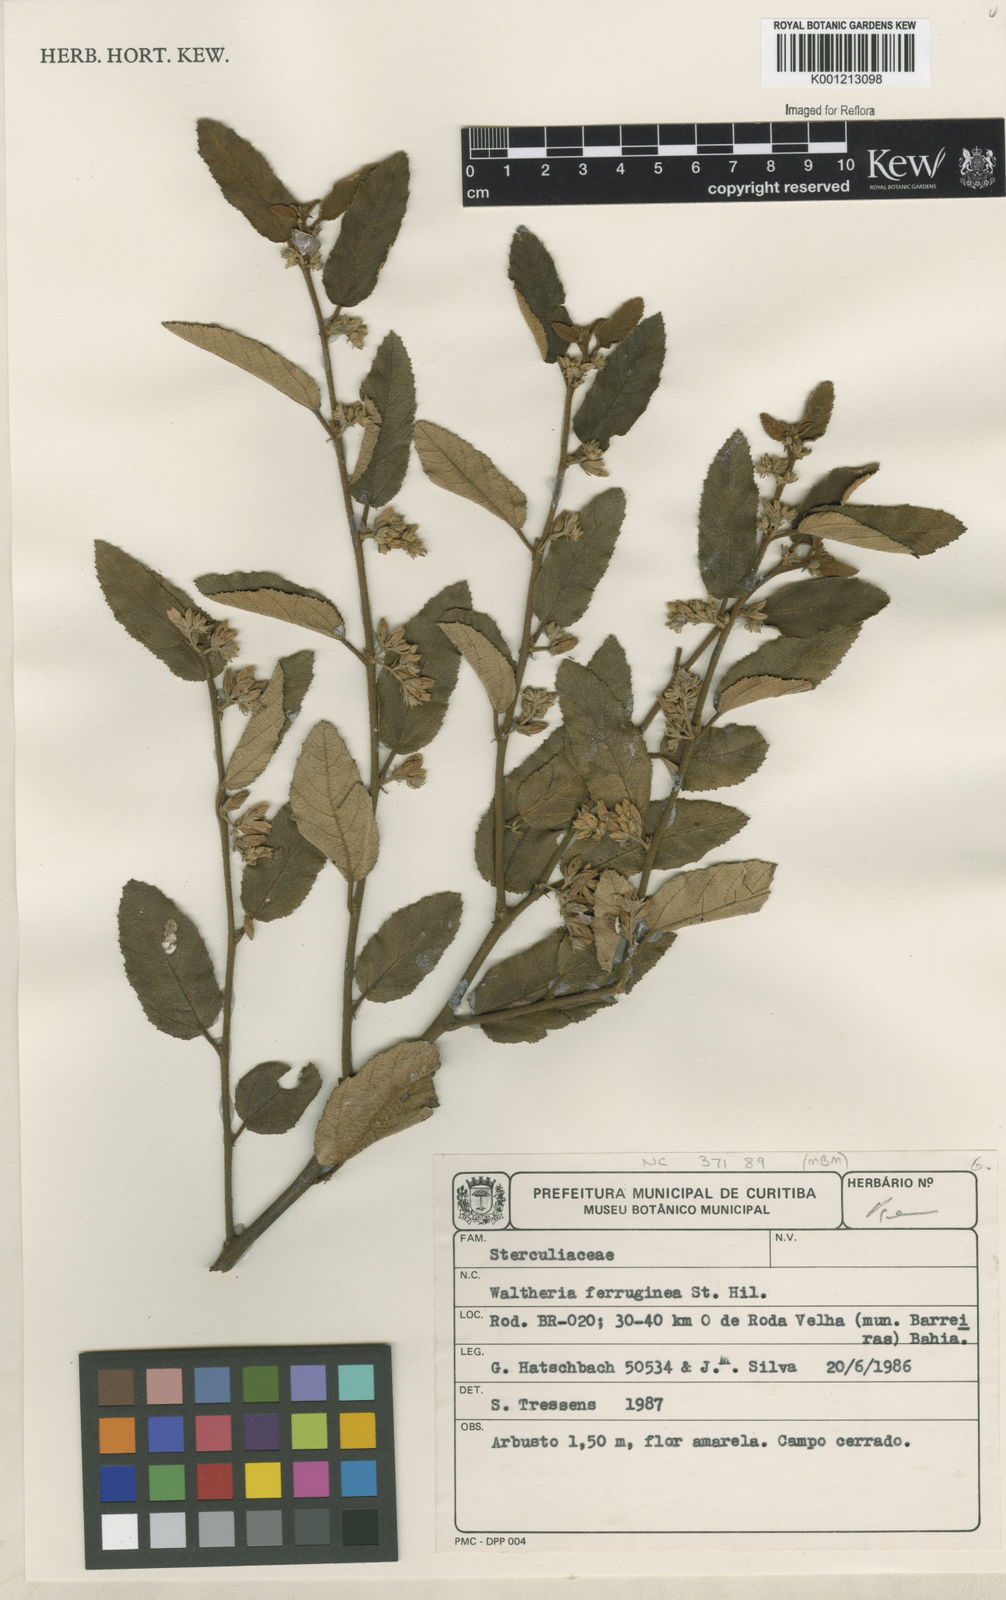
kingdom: Plantae
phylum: Tracheophyta
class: Magnoliopsida
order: Malvales
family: Malvaceae
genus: Waltheria
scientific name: Waltheria ferruginea
